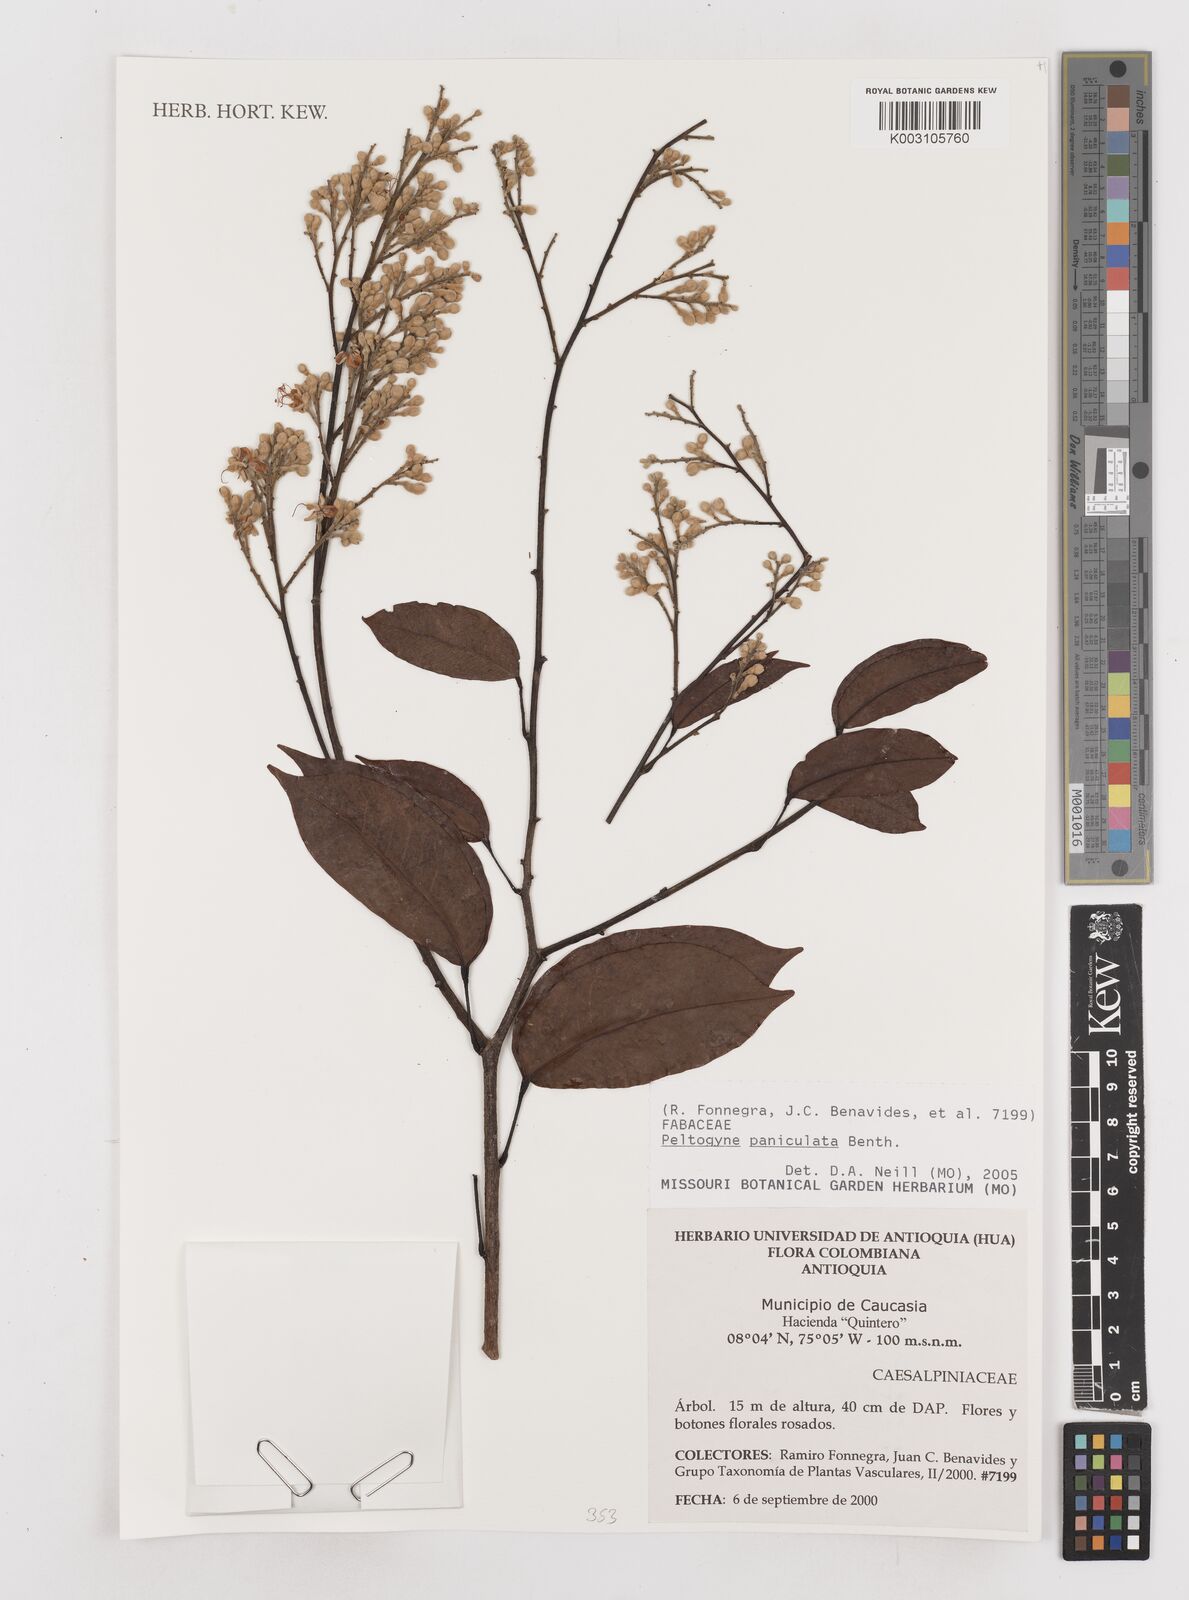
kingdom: Plantae
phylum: Tracheophyta
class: Magnoliopsida
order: Fabales
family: Fabaceae
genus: Peltogyne
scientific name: Peltogyne paniculata
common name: Purpleheart
